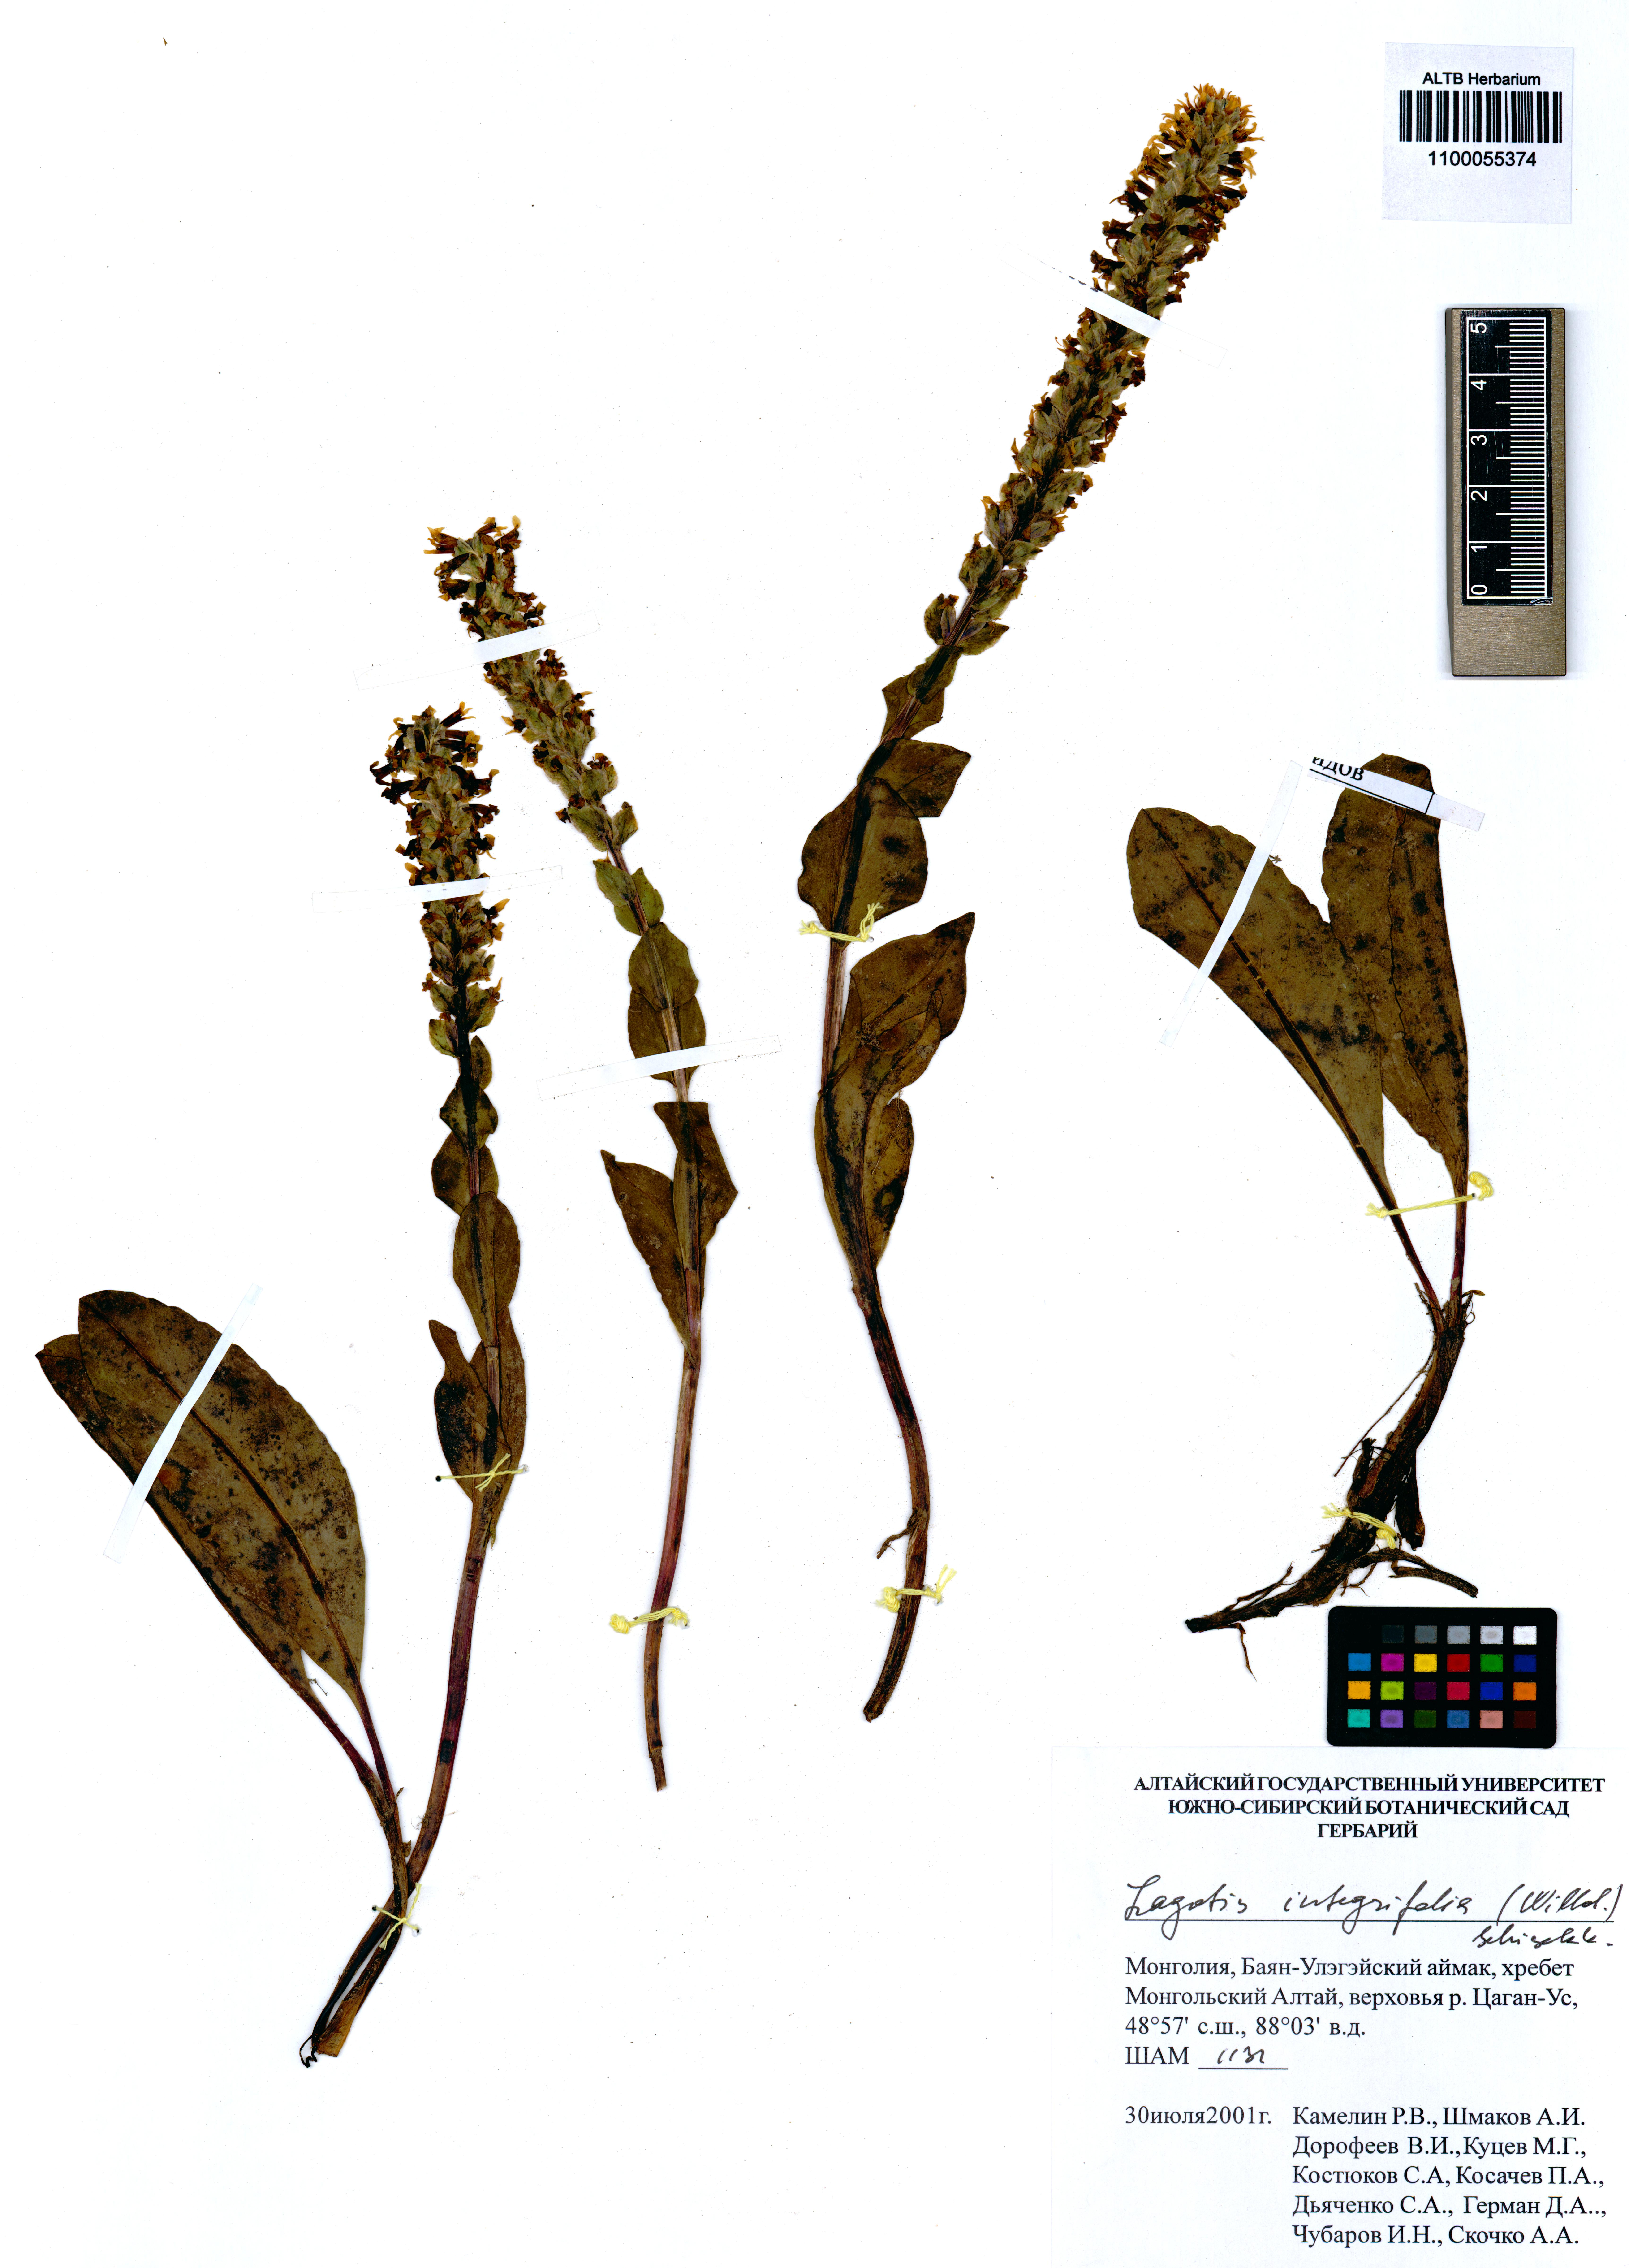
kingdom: Plantae
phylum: Tracheophyta
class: Magnoliopsida
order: Lamiales
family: Plantaginaceae
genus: Lagotis
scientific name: Lagotis integrifolia
